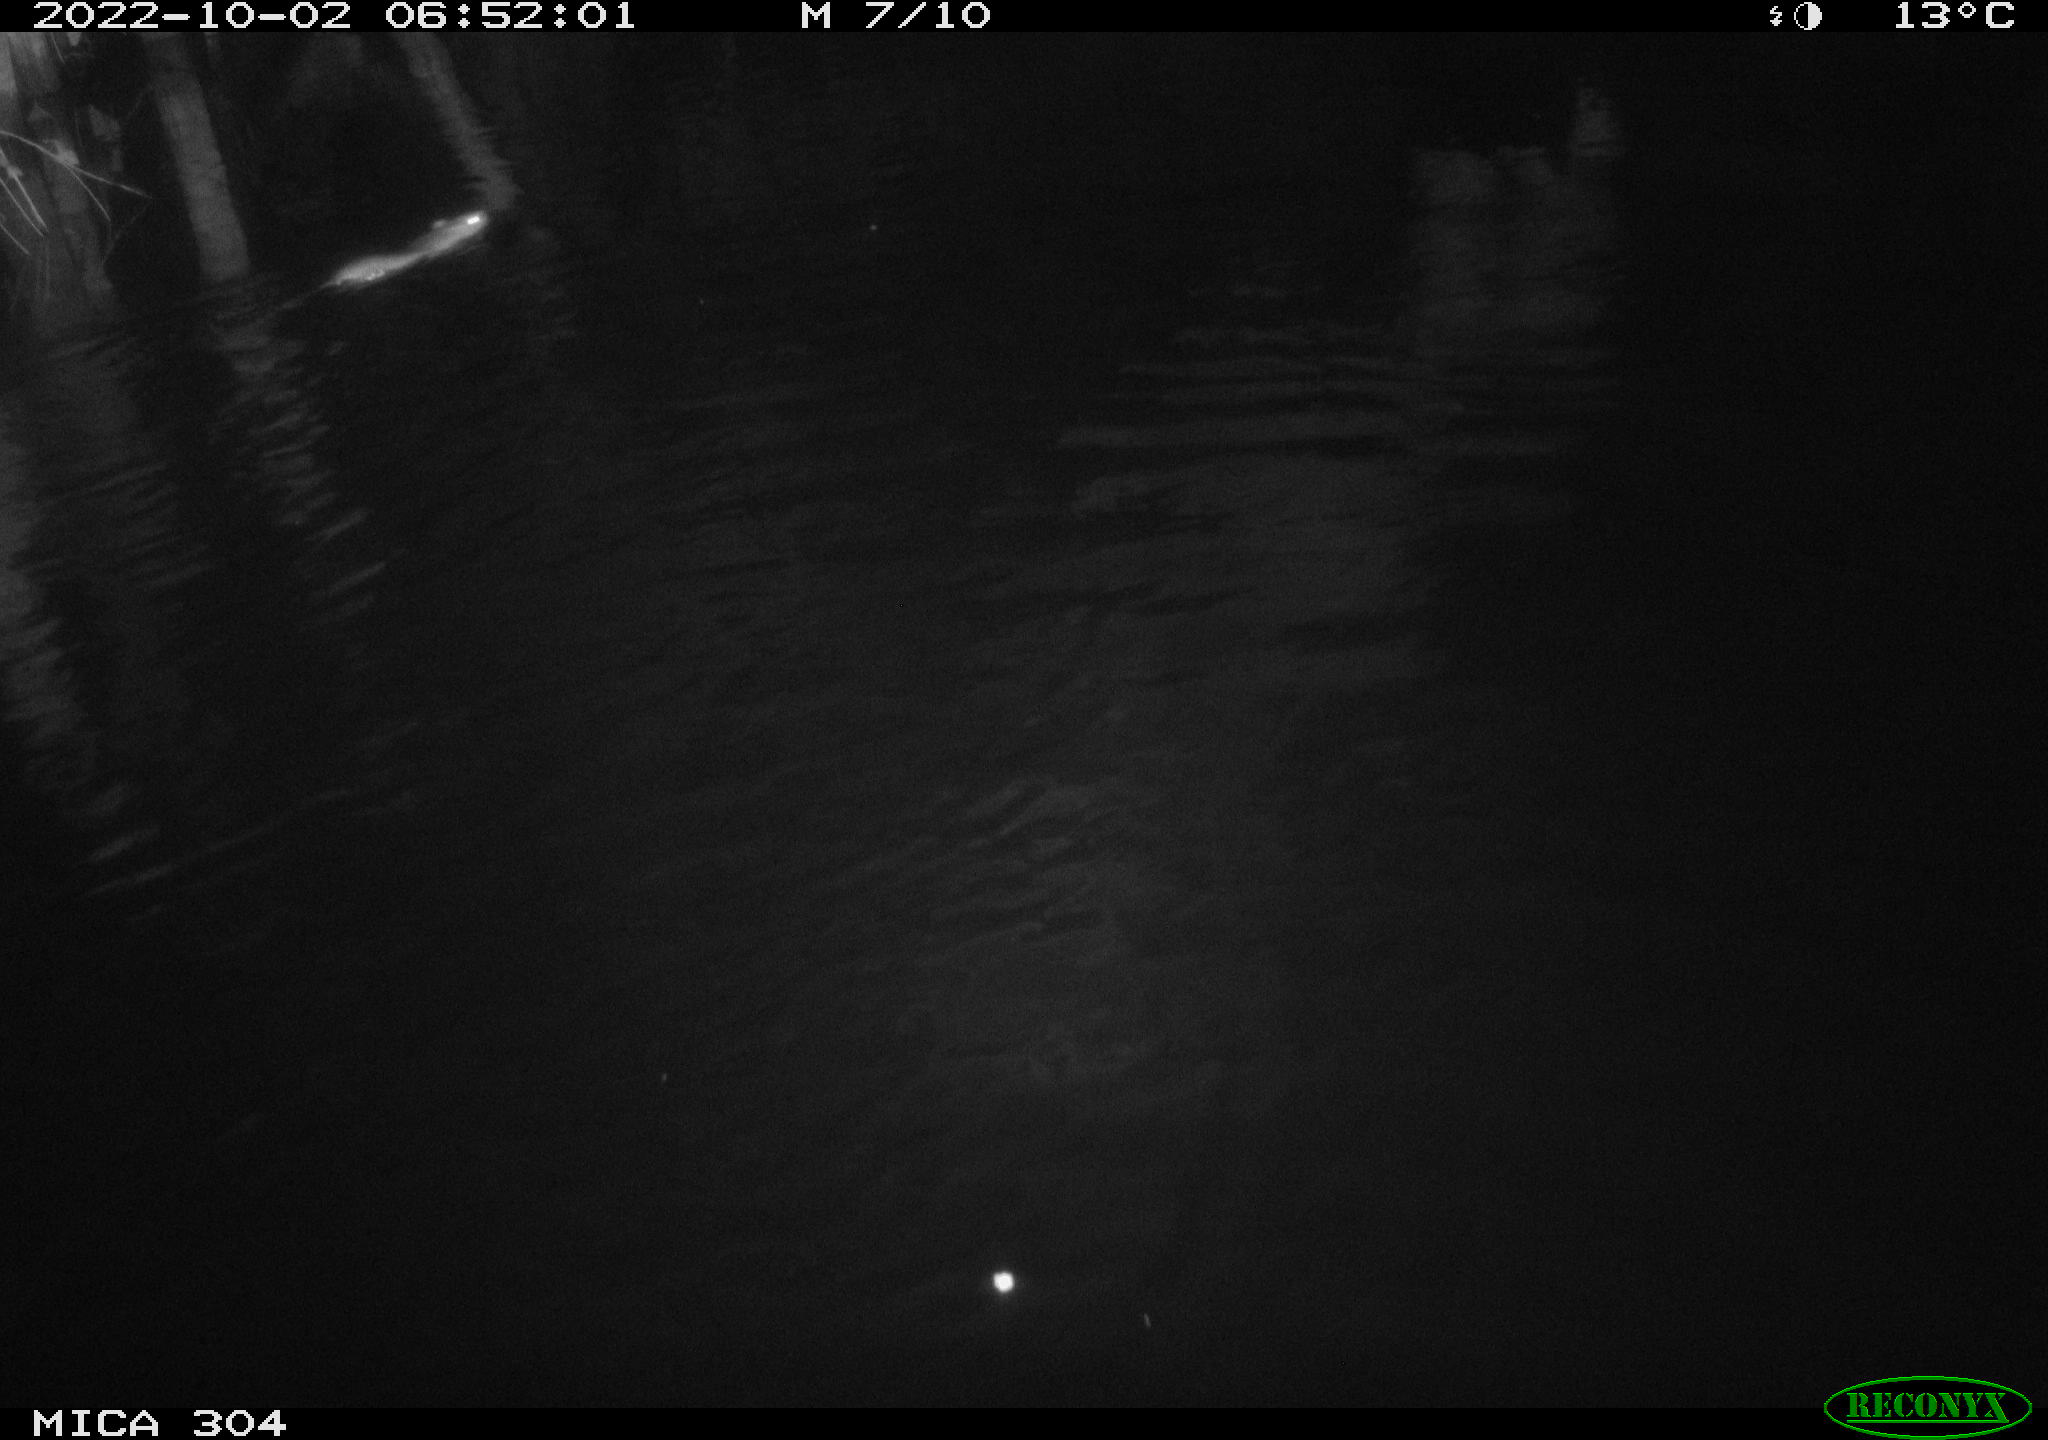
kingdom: Animalia
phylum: Chordata
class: Mammalia
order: Rodentia
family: Muridae
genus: Rattus
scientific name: Rattus norvegicus
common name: Brown rat
